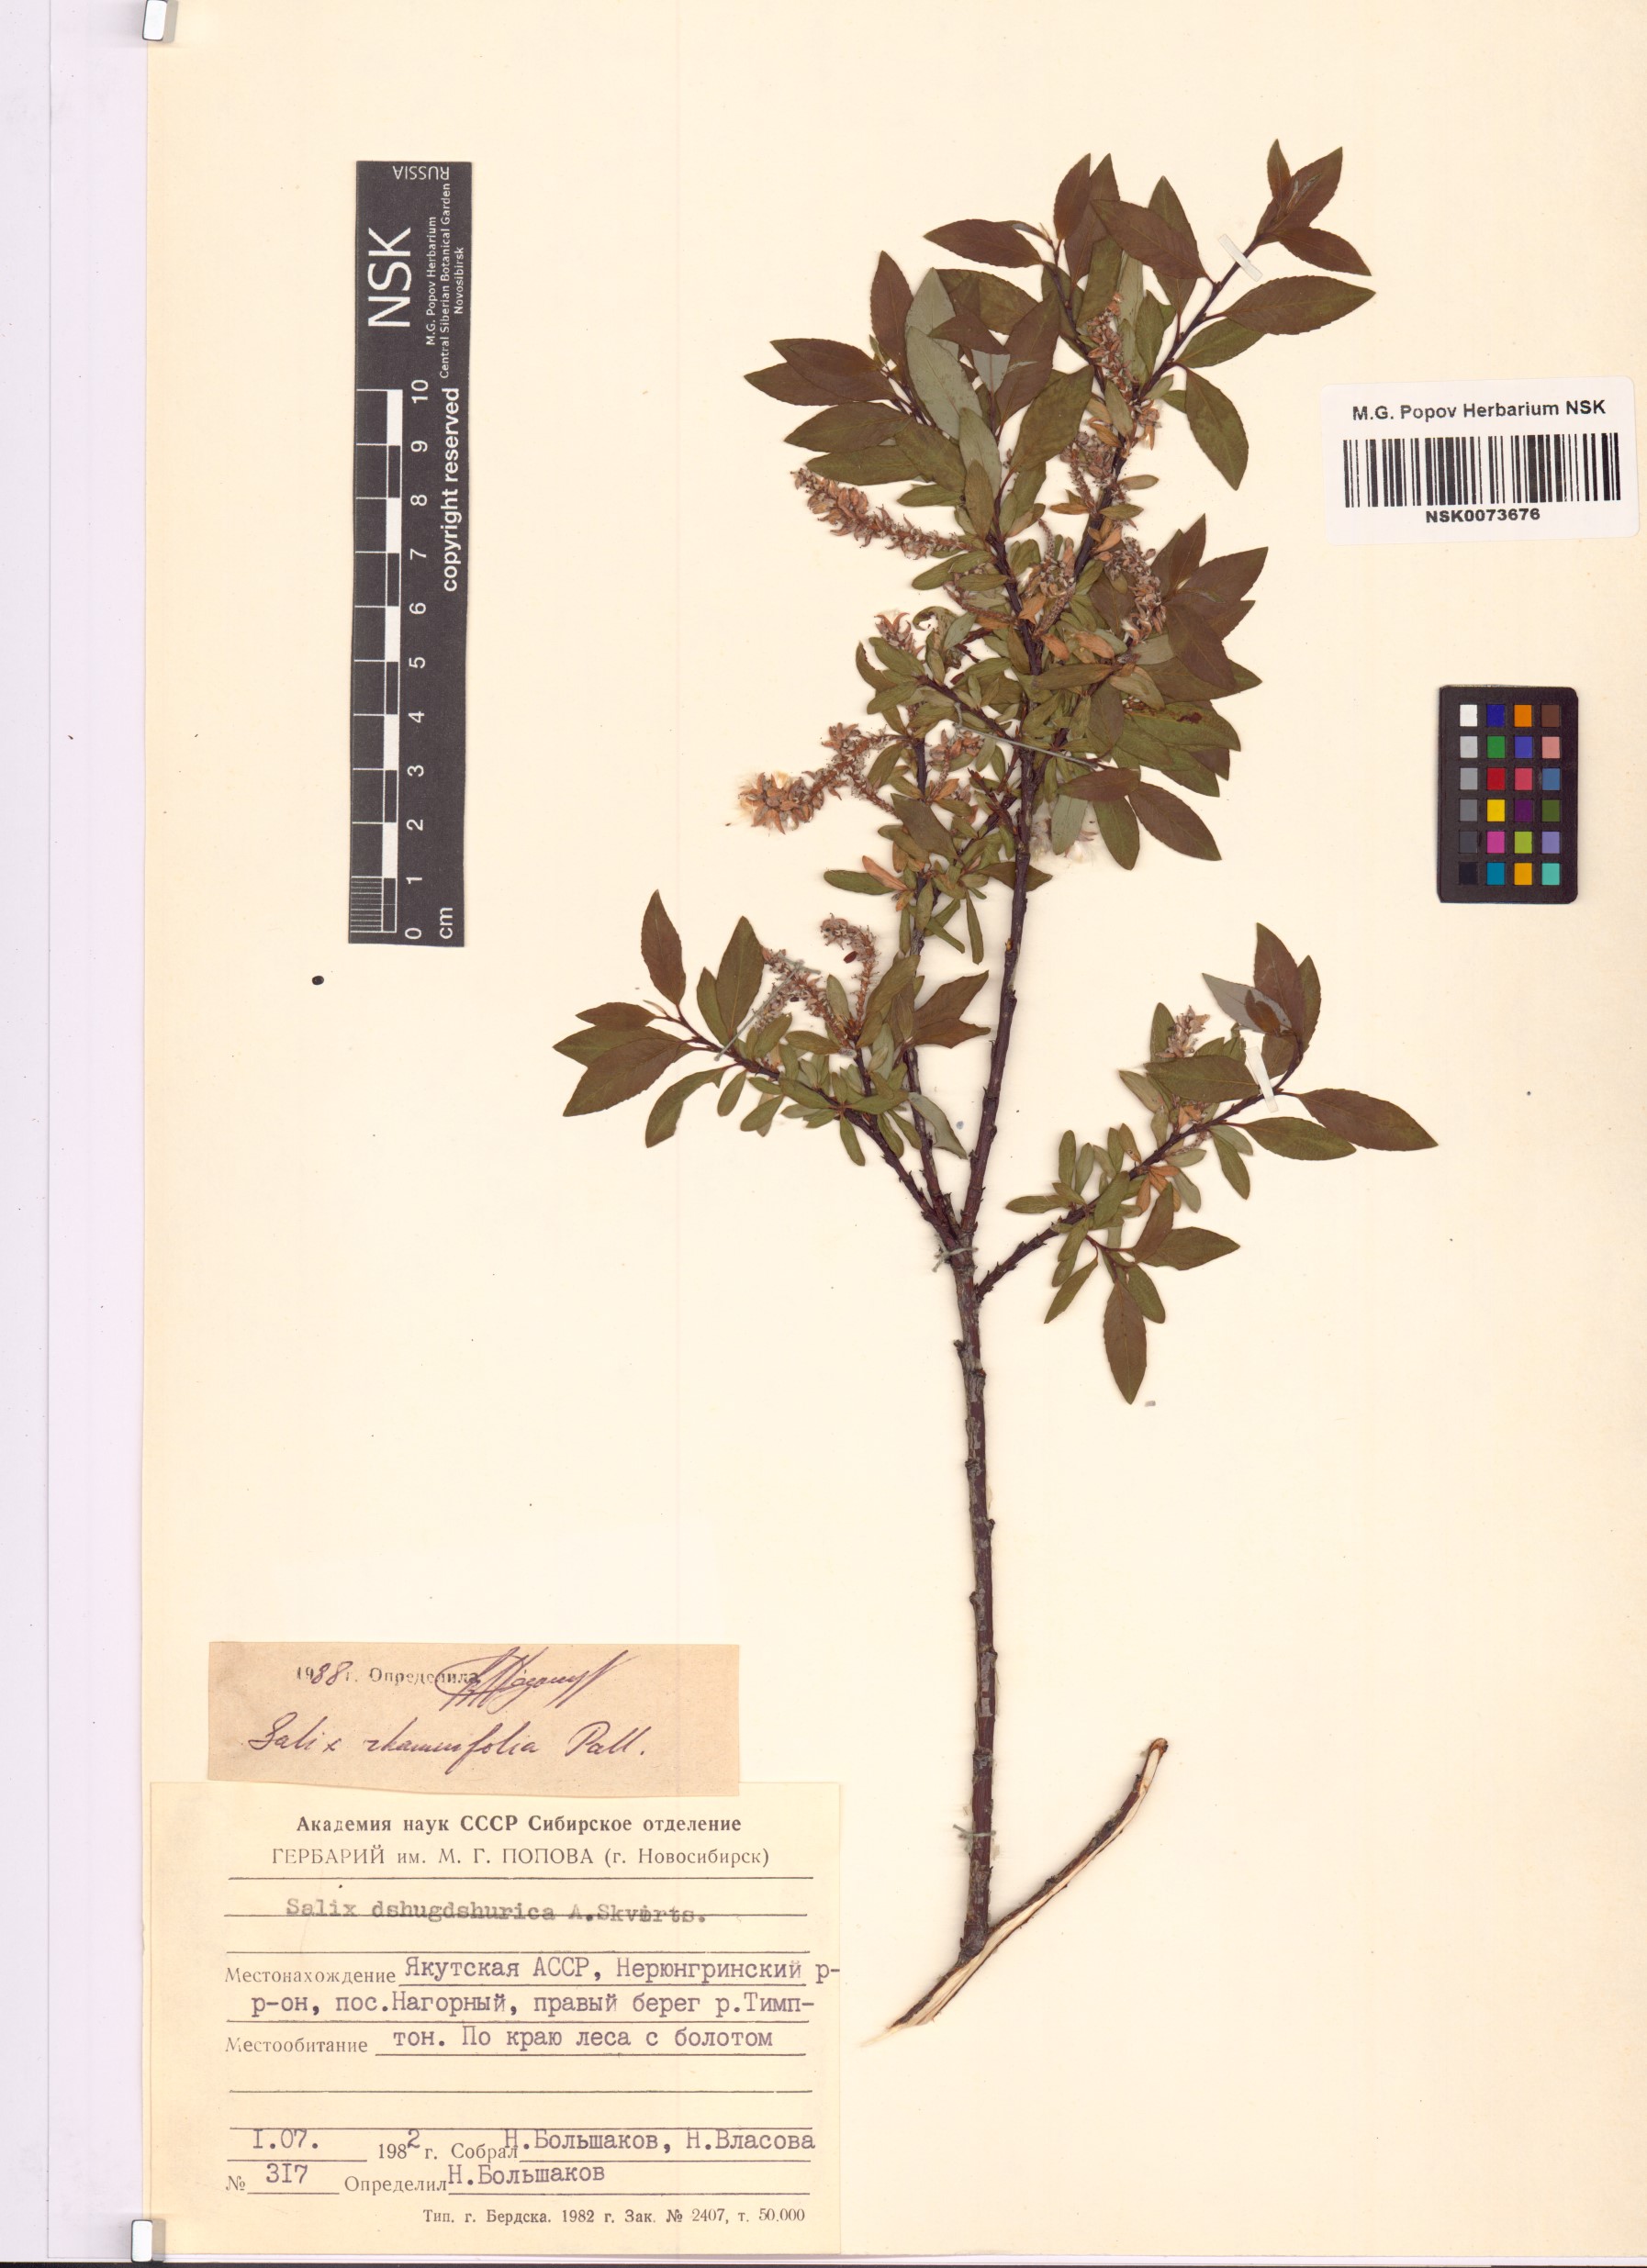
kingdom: Plantae
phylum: Tracheophyta
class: Magnoliopsida
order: Malpighiales
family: Salicaceae
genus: Salix
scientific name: Salix rhamnifolia
